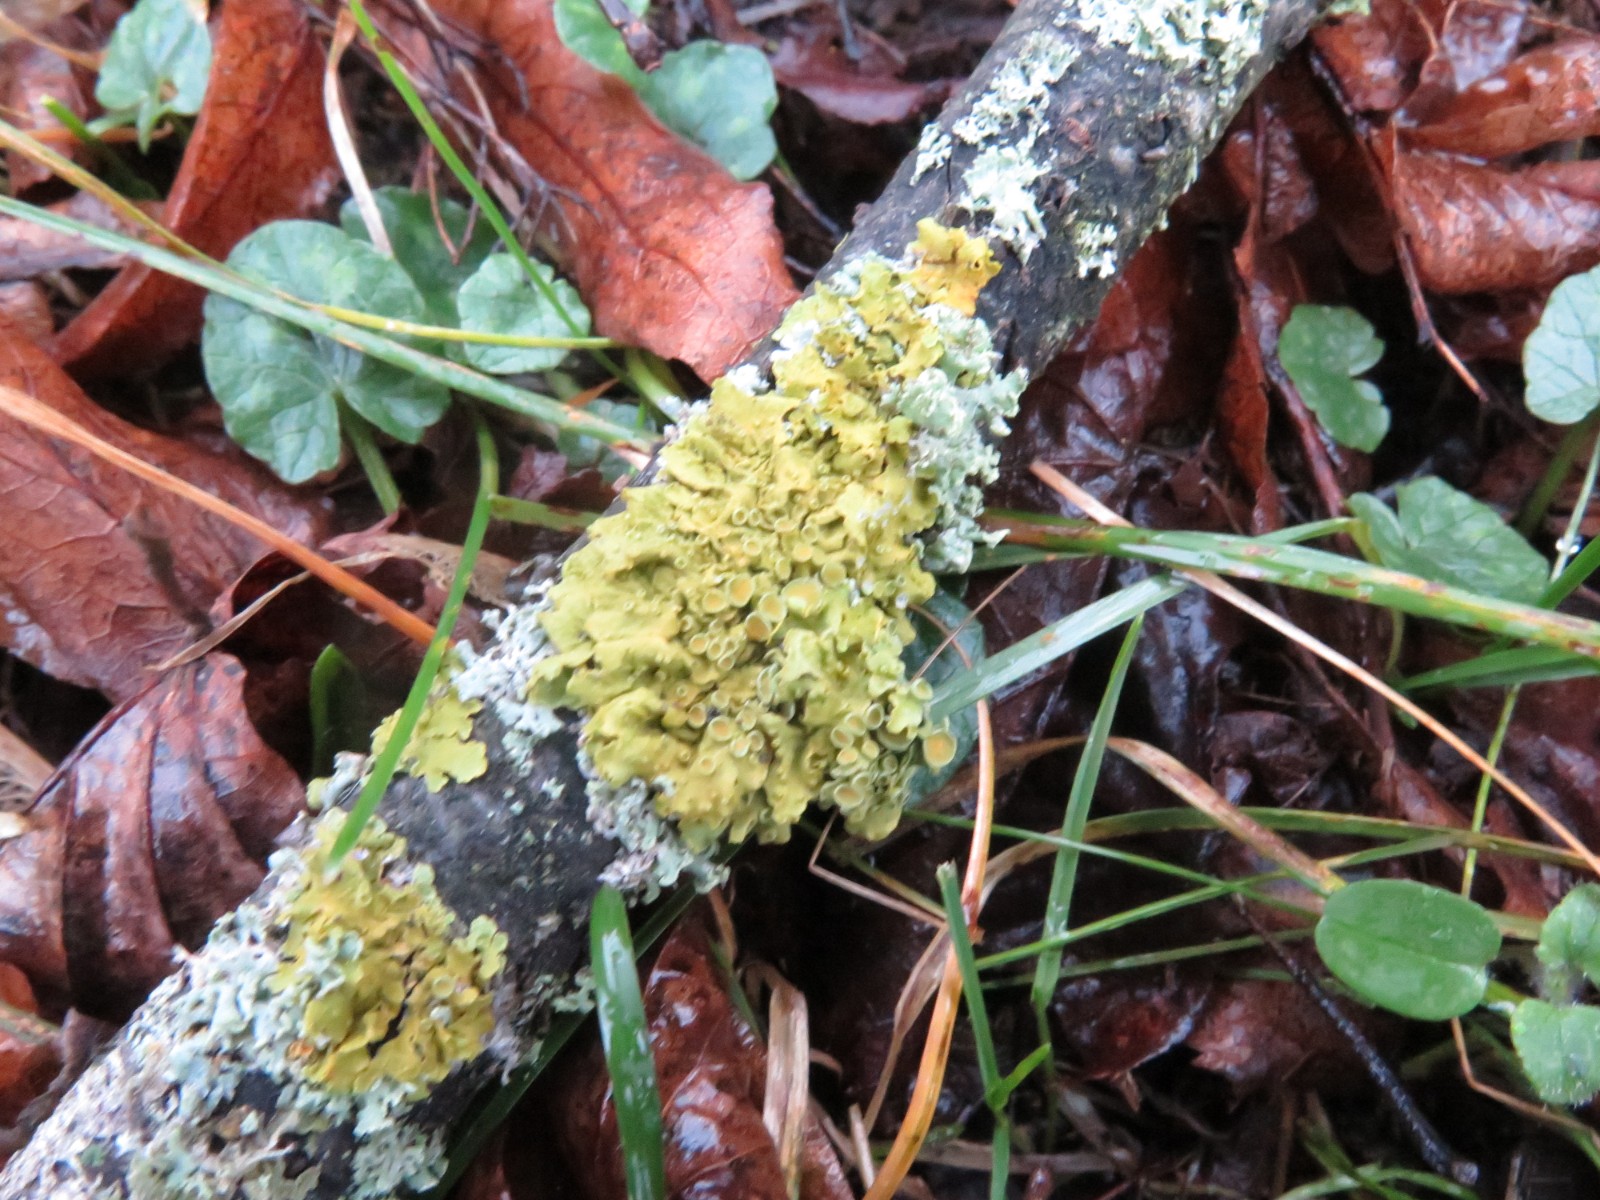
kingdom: Fungi
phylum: Ascomycota
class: Lecanoromycetes
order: Teloschistales
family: Teloschistaceae
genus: Xanthoria
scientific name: Xanthoria parietina
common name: almindelig væggelav
